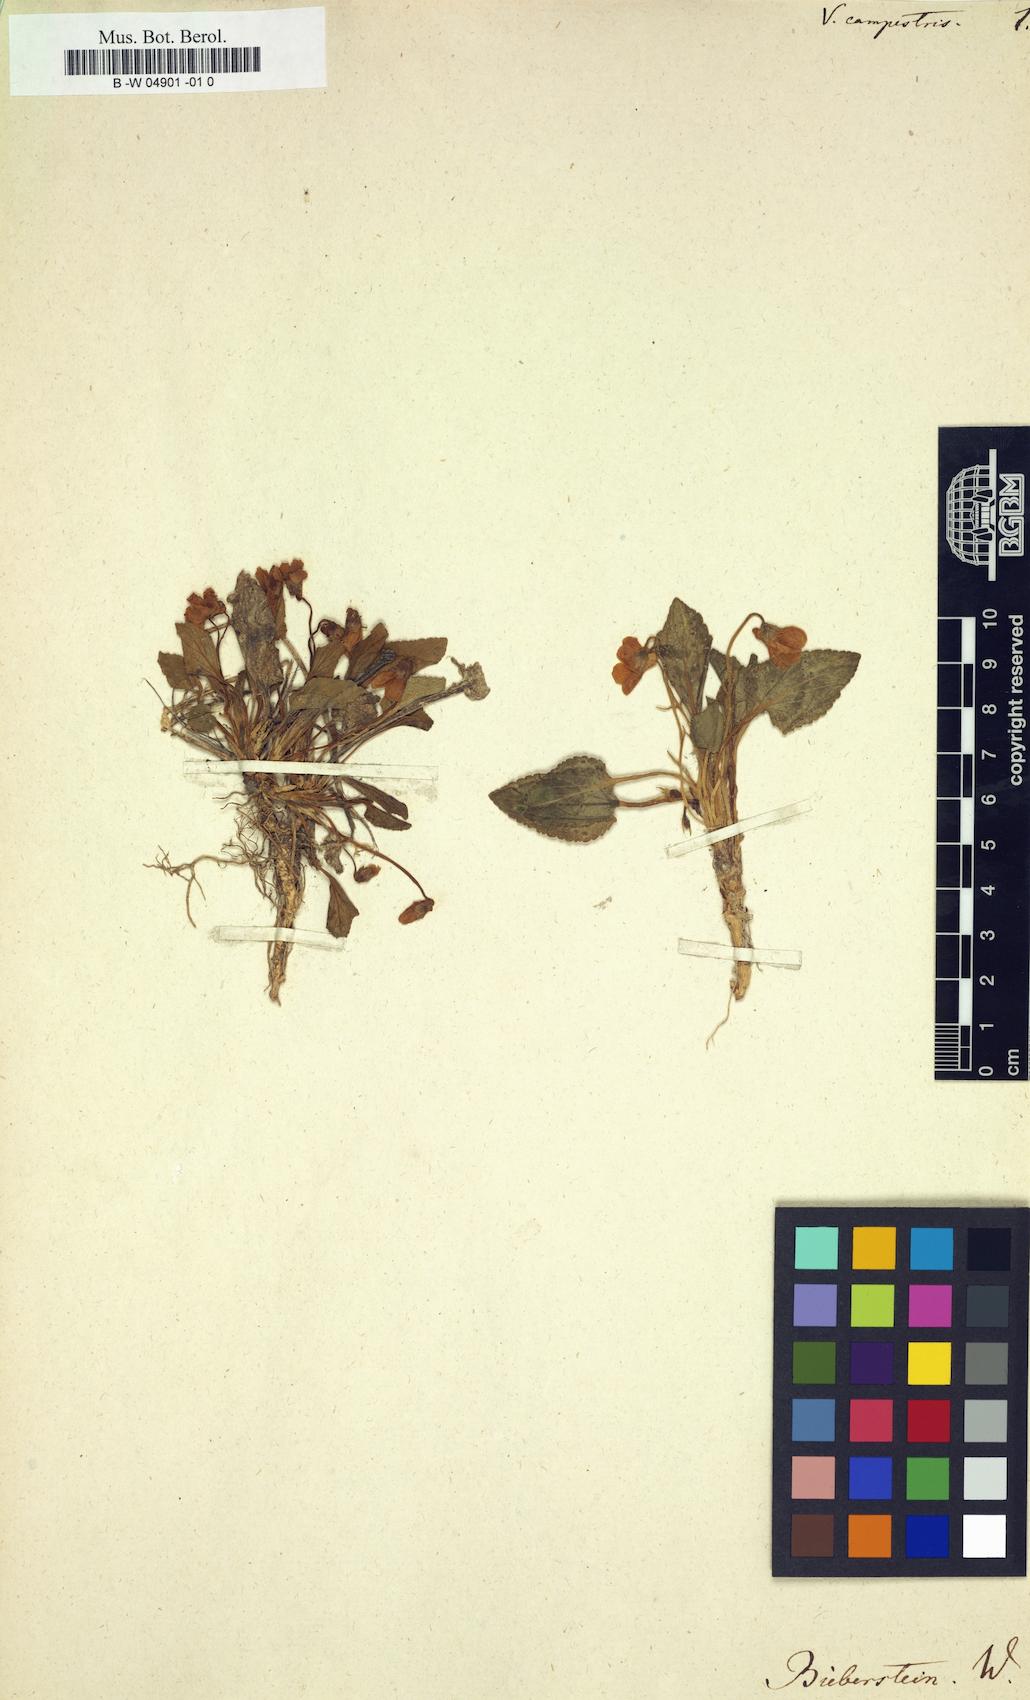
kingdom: Plantae
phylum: Tracheophyta
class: Magnoliopsida
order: Malpighiales
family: Violaceae
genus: Viola
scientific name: Viola ambigua
